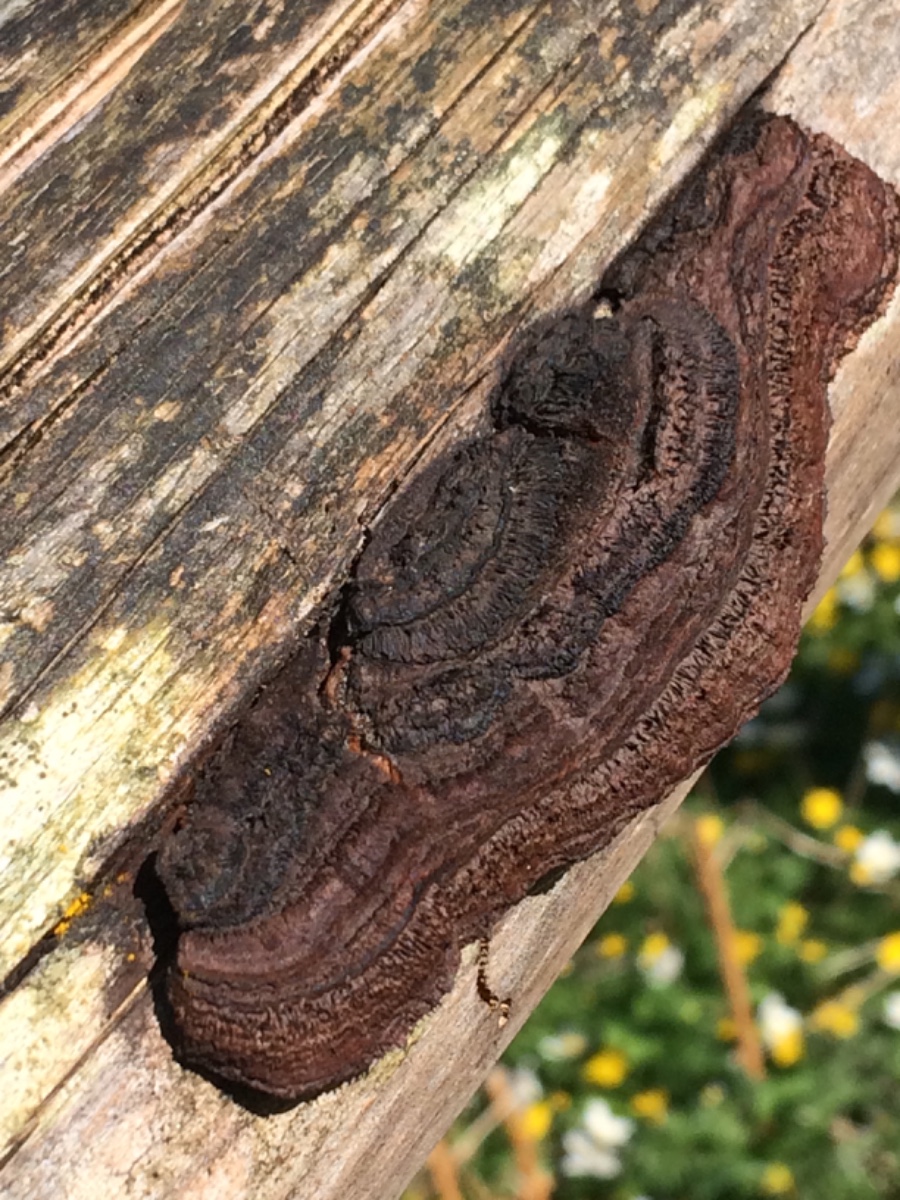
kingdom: Fungi
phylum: Basidiomycota
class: Agaricomycetes
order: Gloeophyllales
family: Gloeophyllaceae
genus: Gloeophyllum
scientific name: Gloeophyllum sepiarium
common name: fyrre-korkhat
